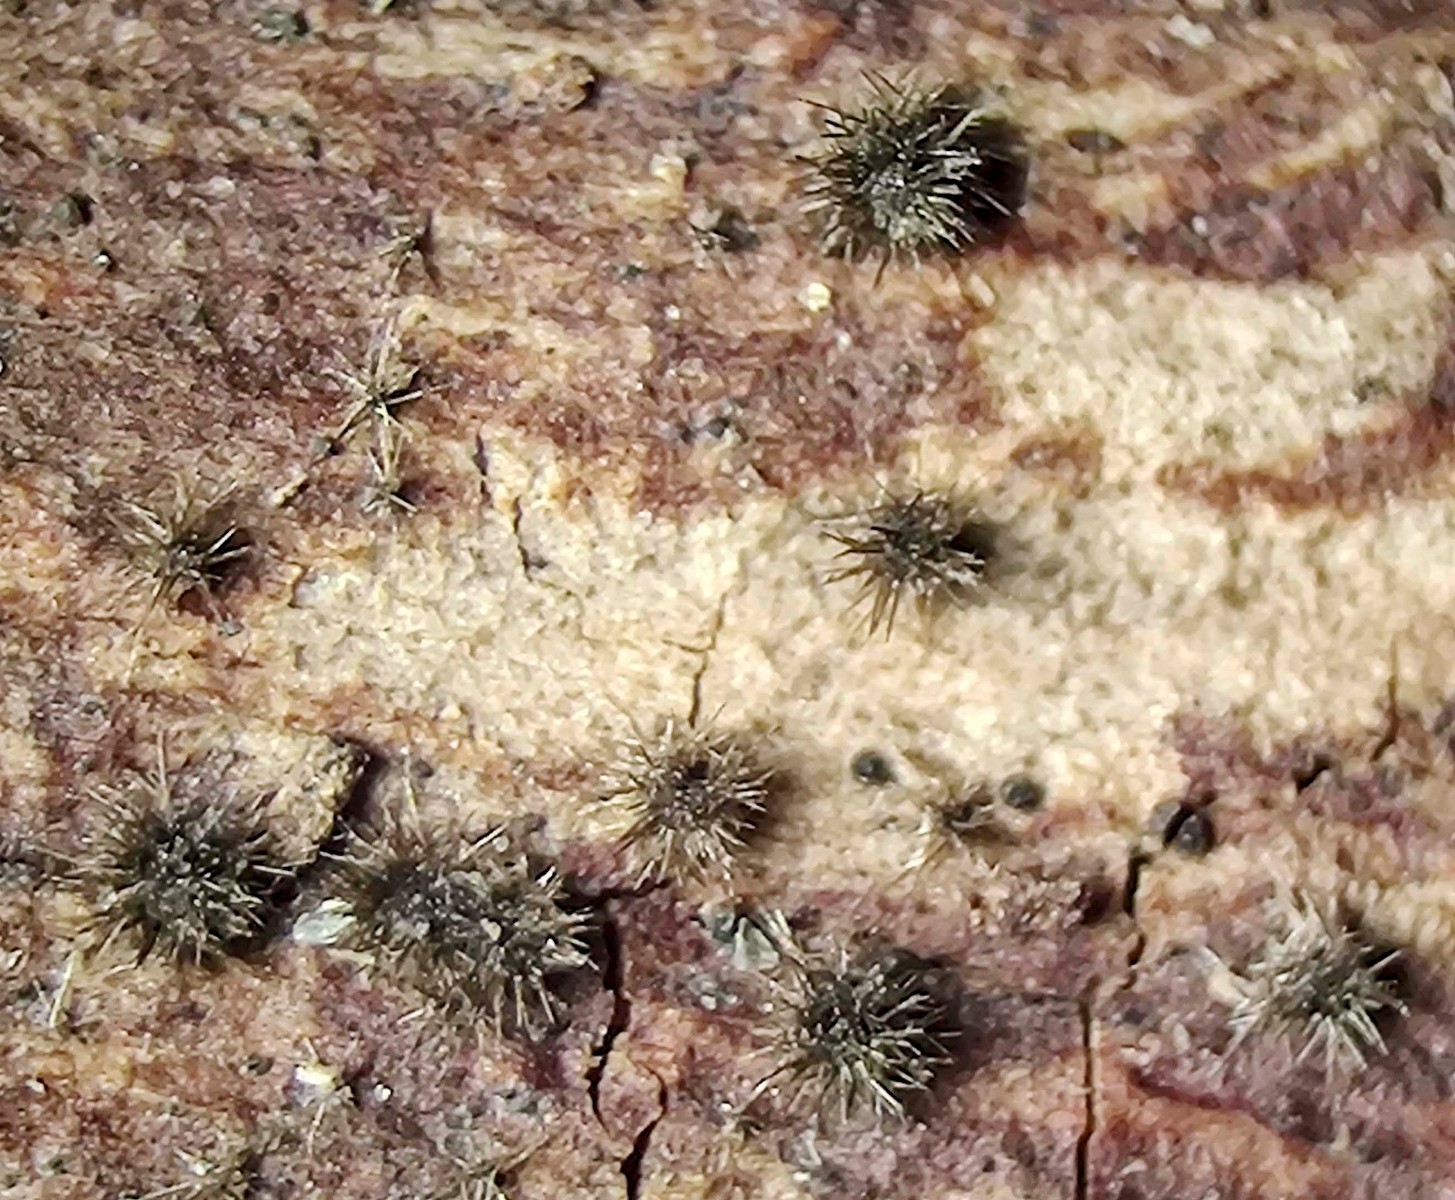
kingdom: Fungi
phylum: Ascomycota
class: Sordariomycetes
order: Sordariales
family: Helminthosphaeriaceae
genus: Echinosphaeria
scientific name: Echinosphaeria canescens
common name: brun børstekerne
